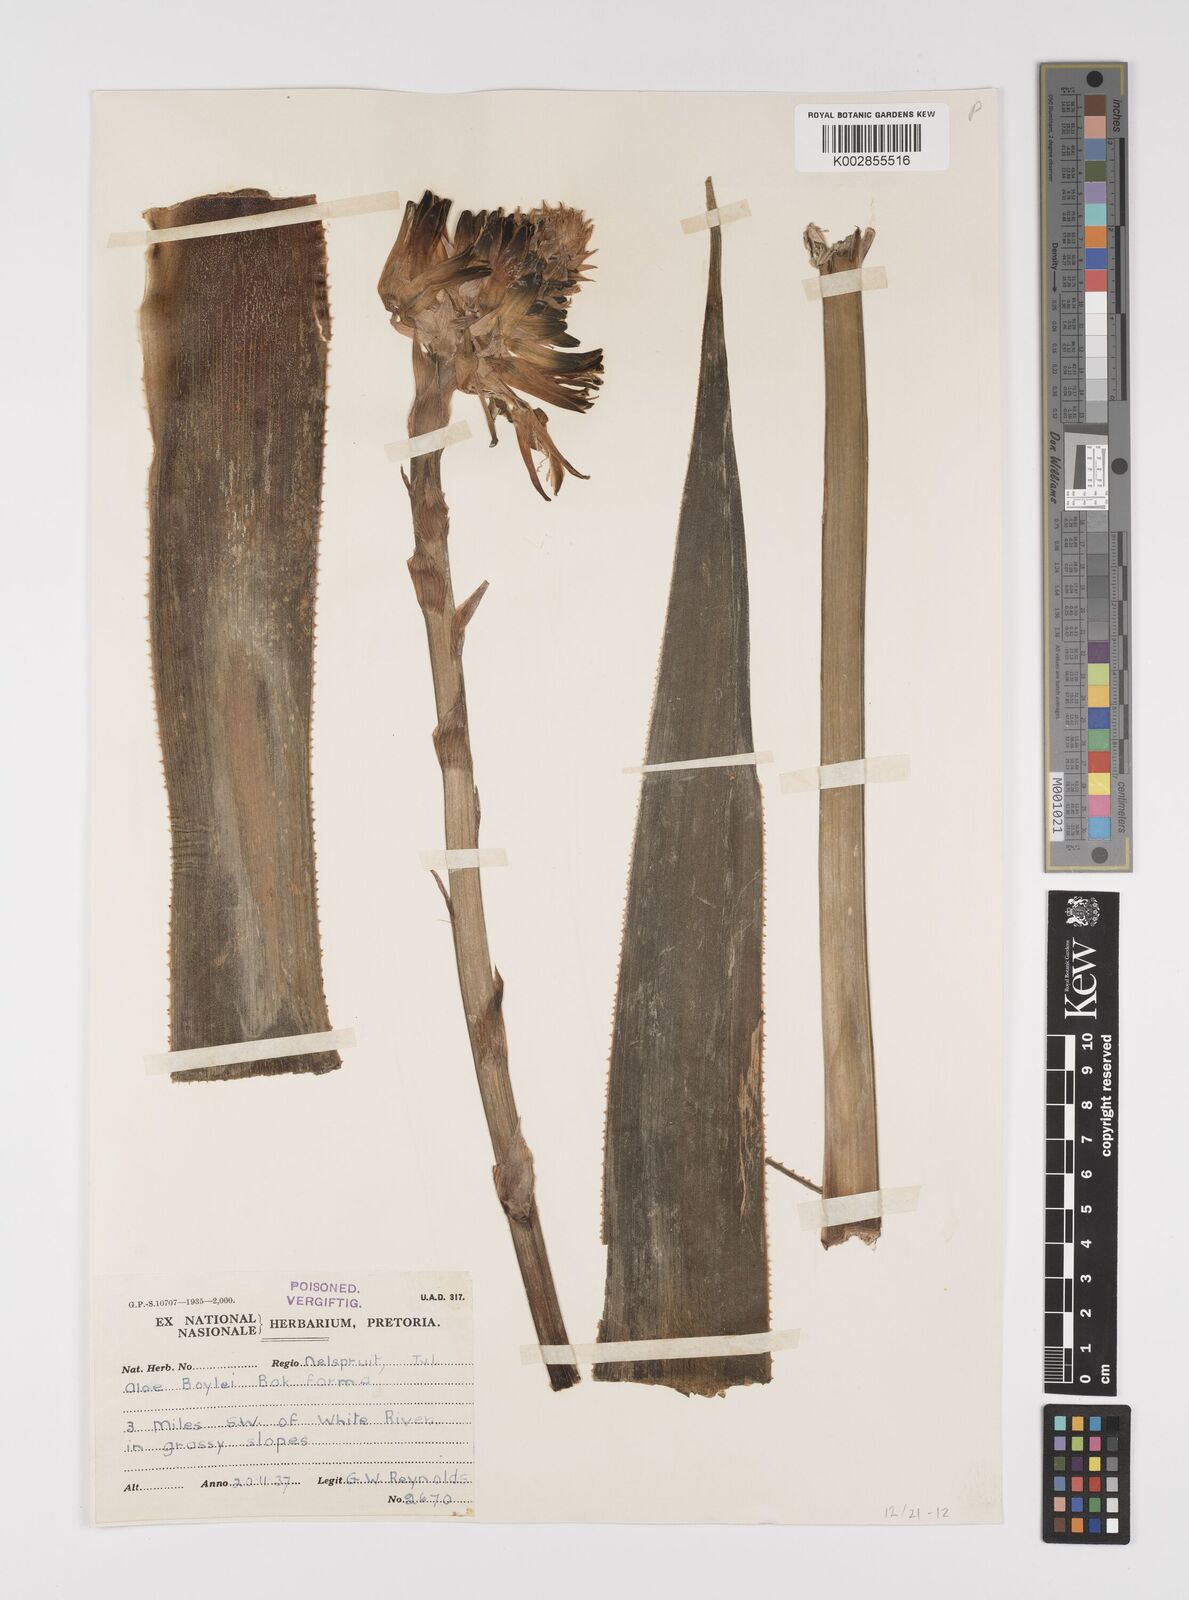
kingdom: Plantae
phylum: Tracheophyta
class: Liliopsida
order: Asparagales
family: Asphodelaceae
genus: Aloe
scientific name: Aloe boylei
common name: Broad-leaved grass aloe
